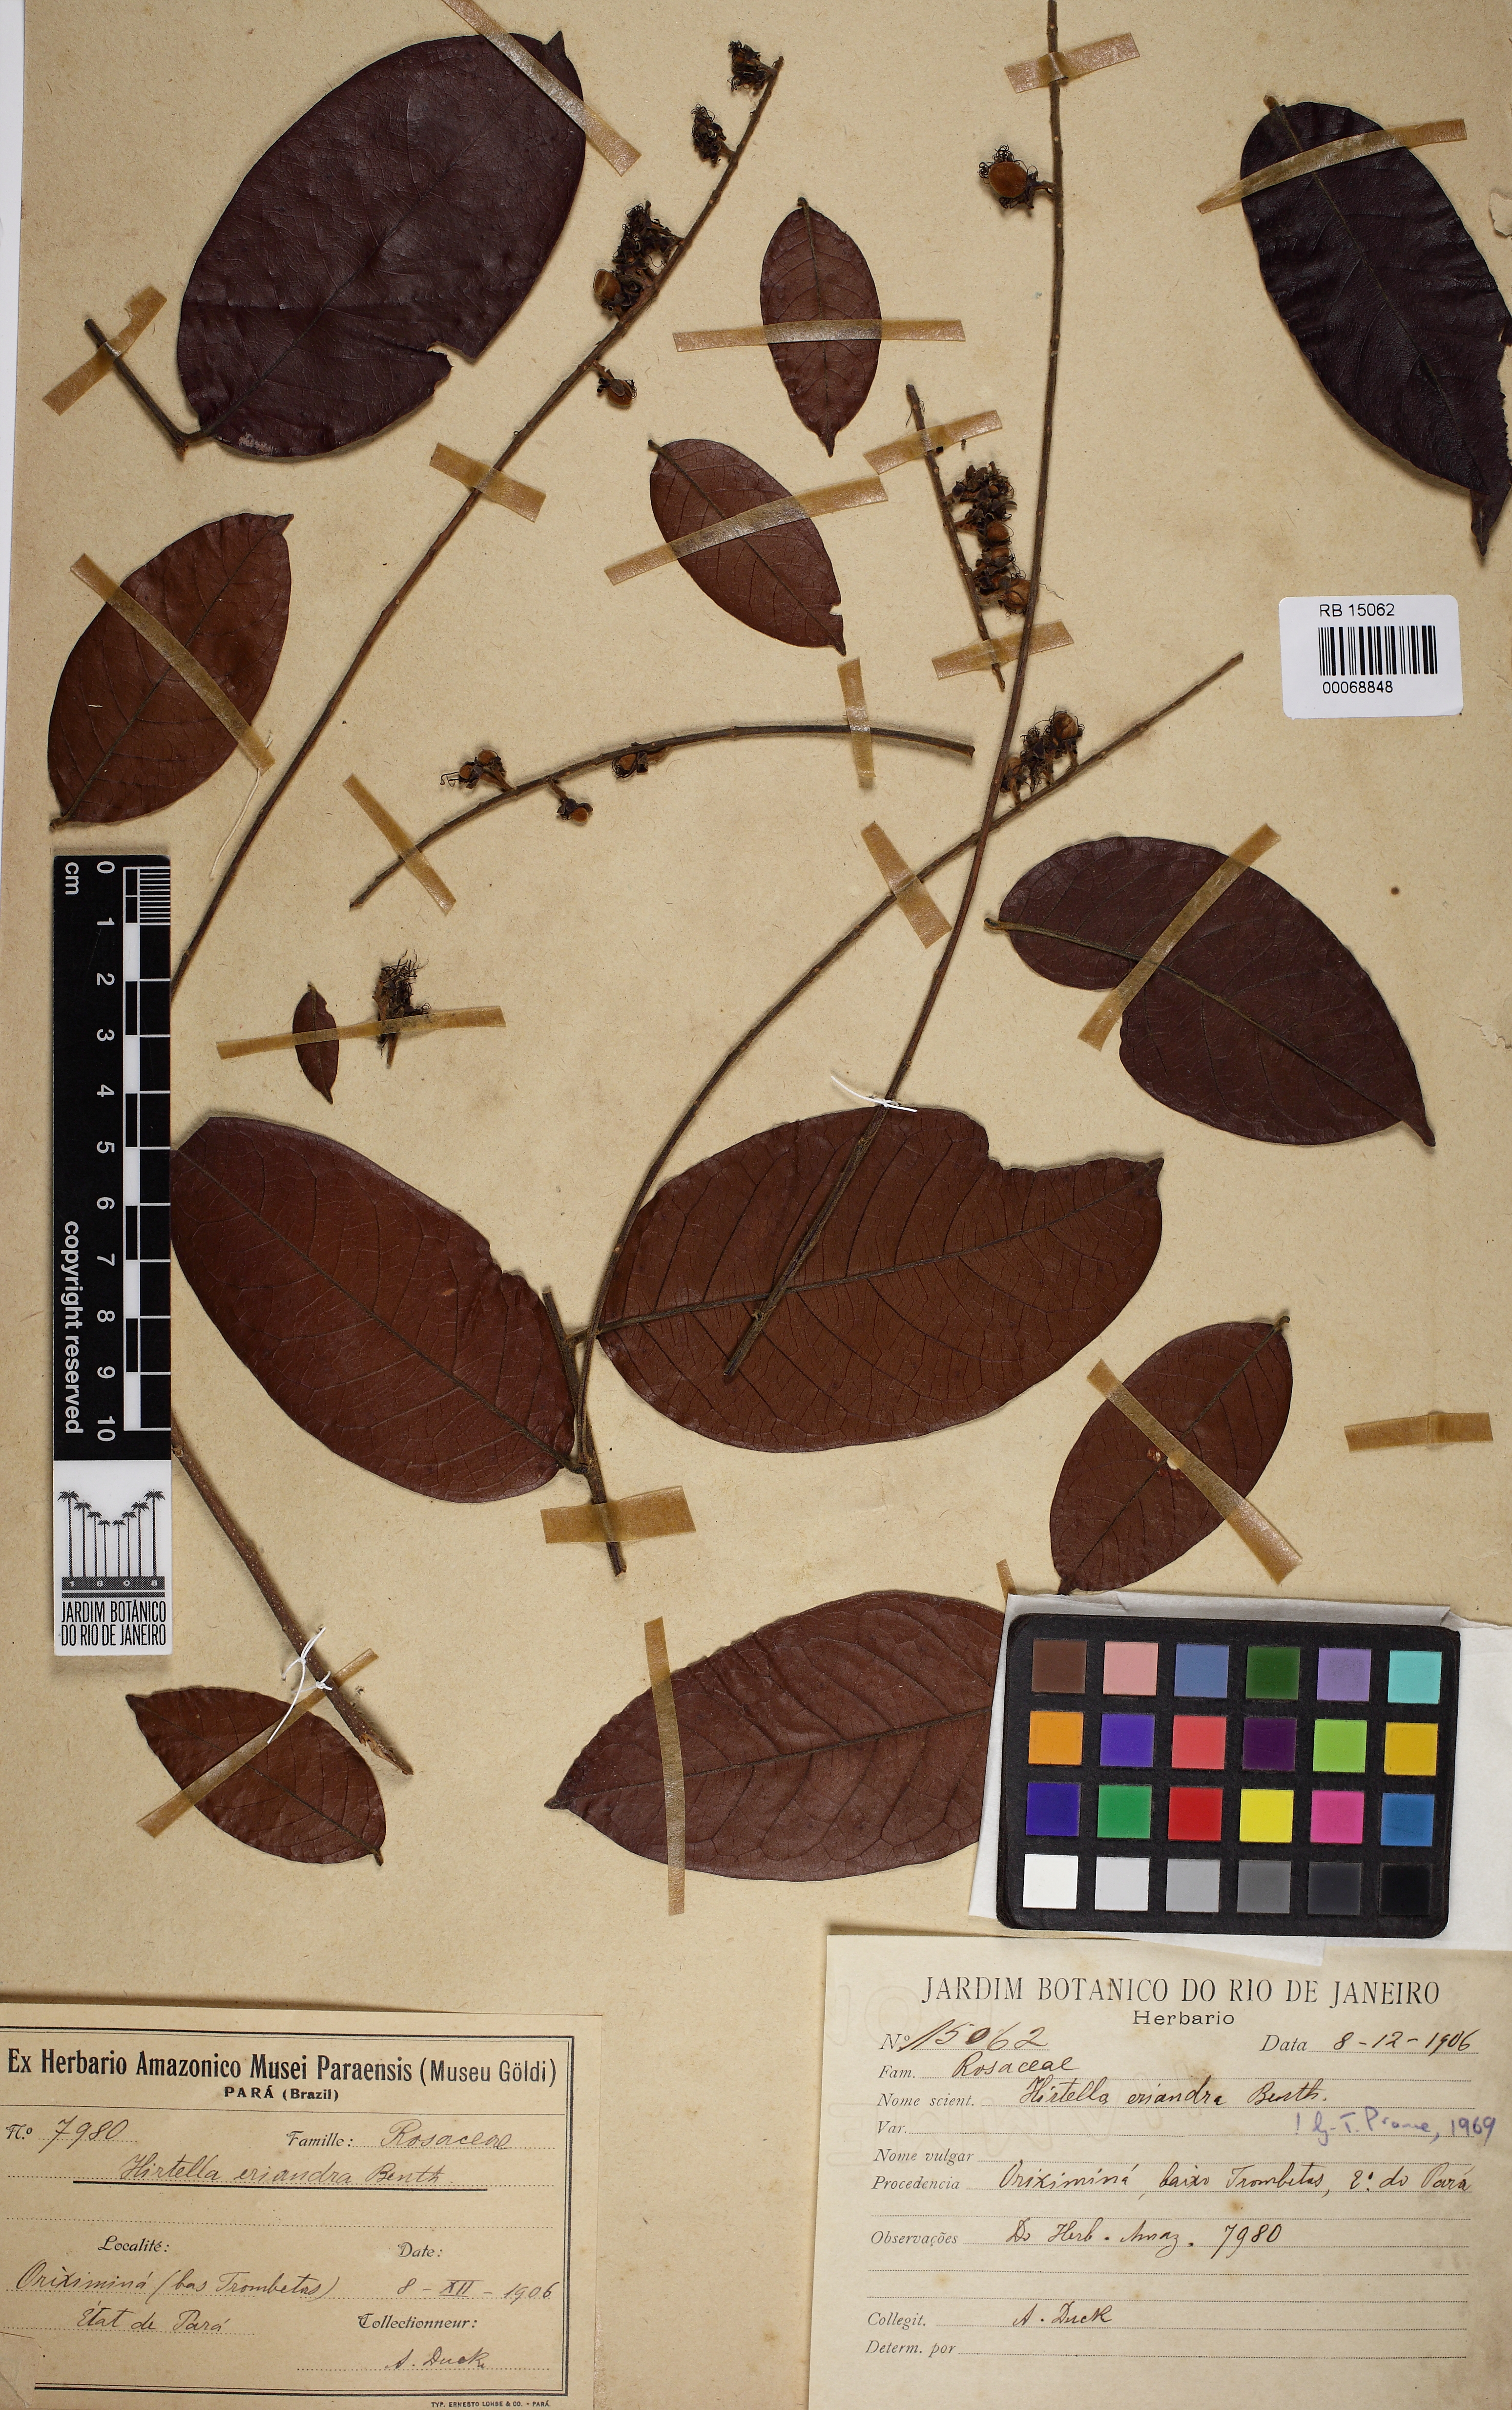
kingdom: Plantae
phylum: Tracheophyta
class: Magnoliopsida
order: Malpighiales
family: Chrysobalanaceae
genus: Hirtella
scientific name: Hirtella eriandra
